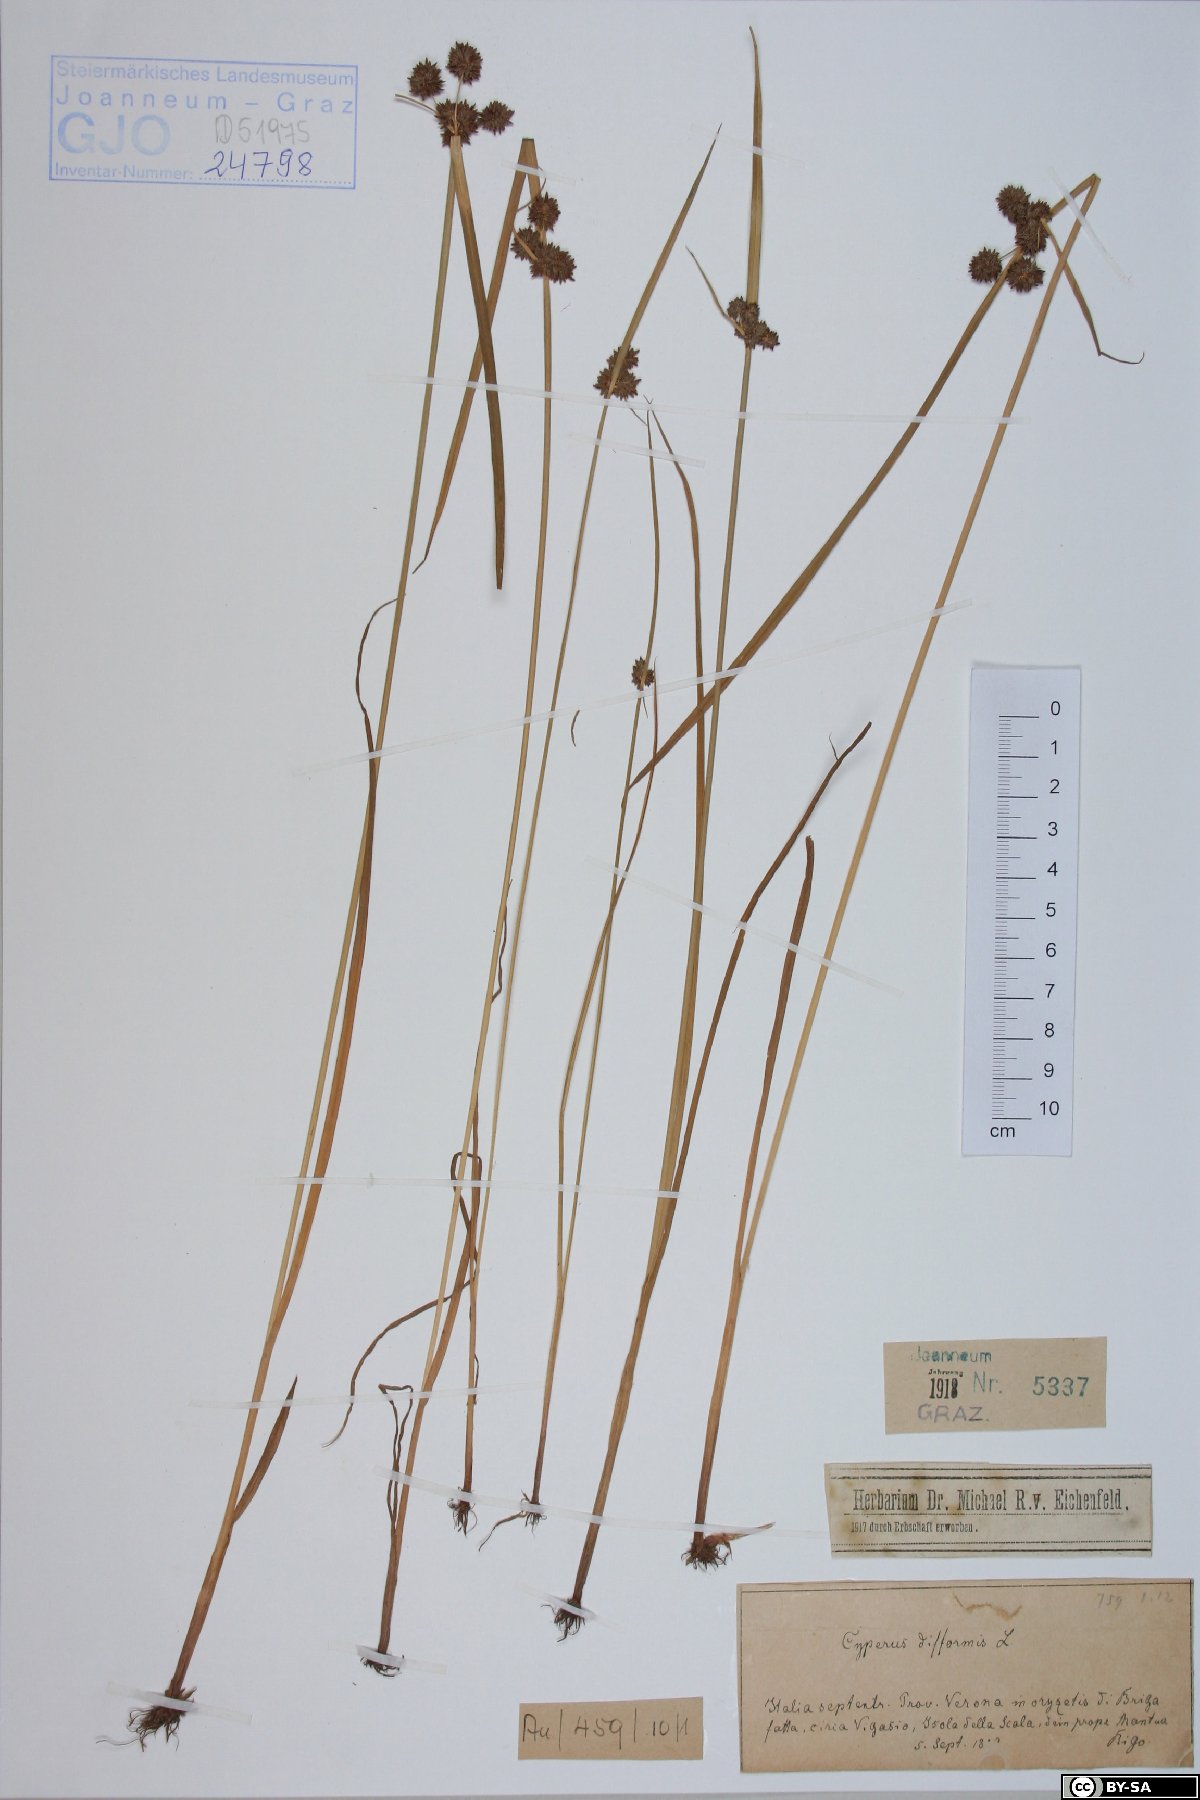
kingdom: Plantae
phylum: Tracheophyta
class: Liliopsida
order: Poales
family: Cyperaceae
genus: Cyperus
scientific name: Cyperus difformis
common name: Variable flatsedge
